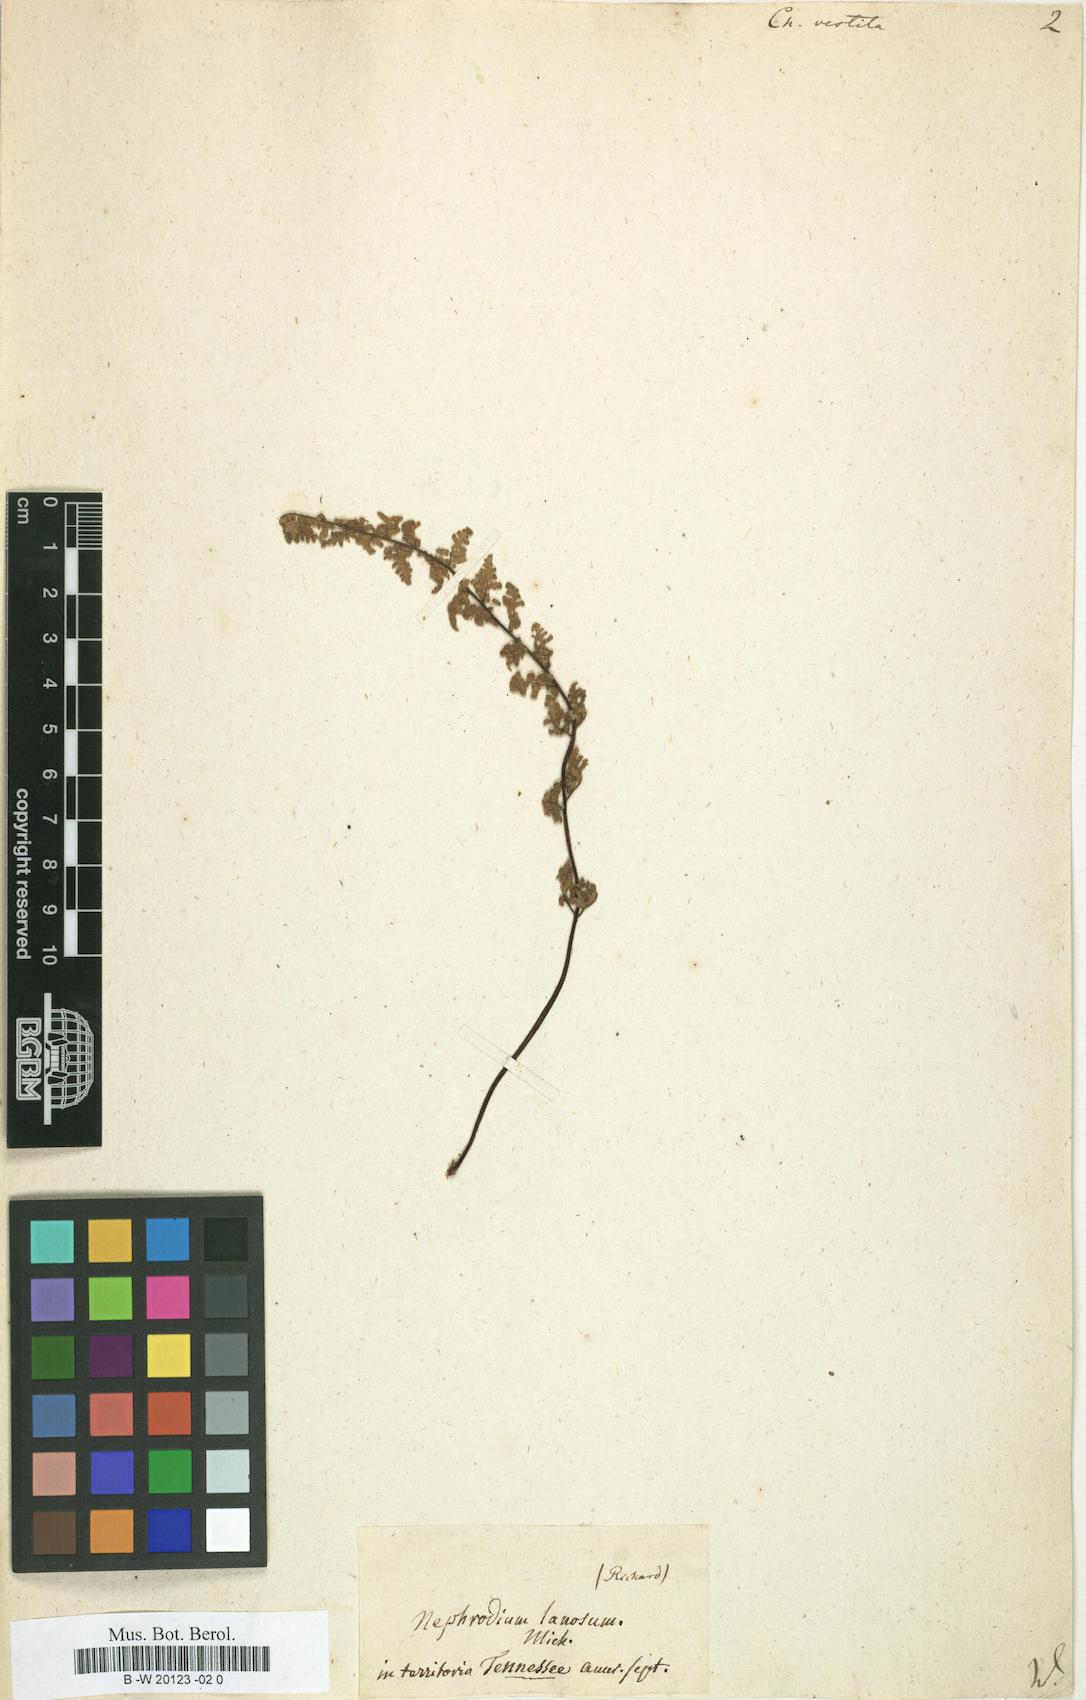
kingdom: Plantae
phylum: Tracheophyta
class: Polypodiopsida
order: Polypodiales
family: Pteridaceae
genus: Myriopteris
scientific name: Myriopteris
